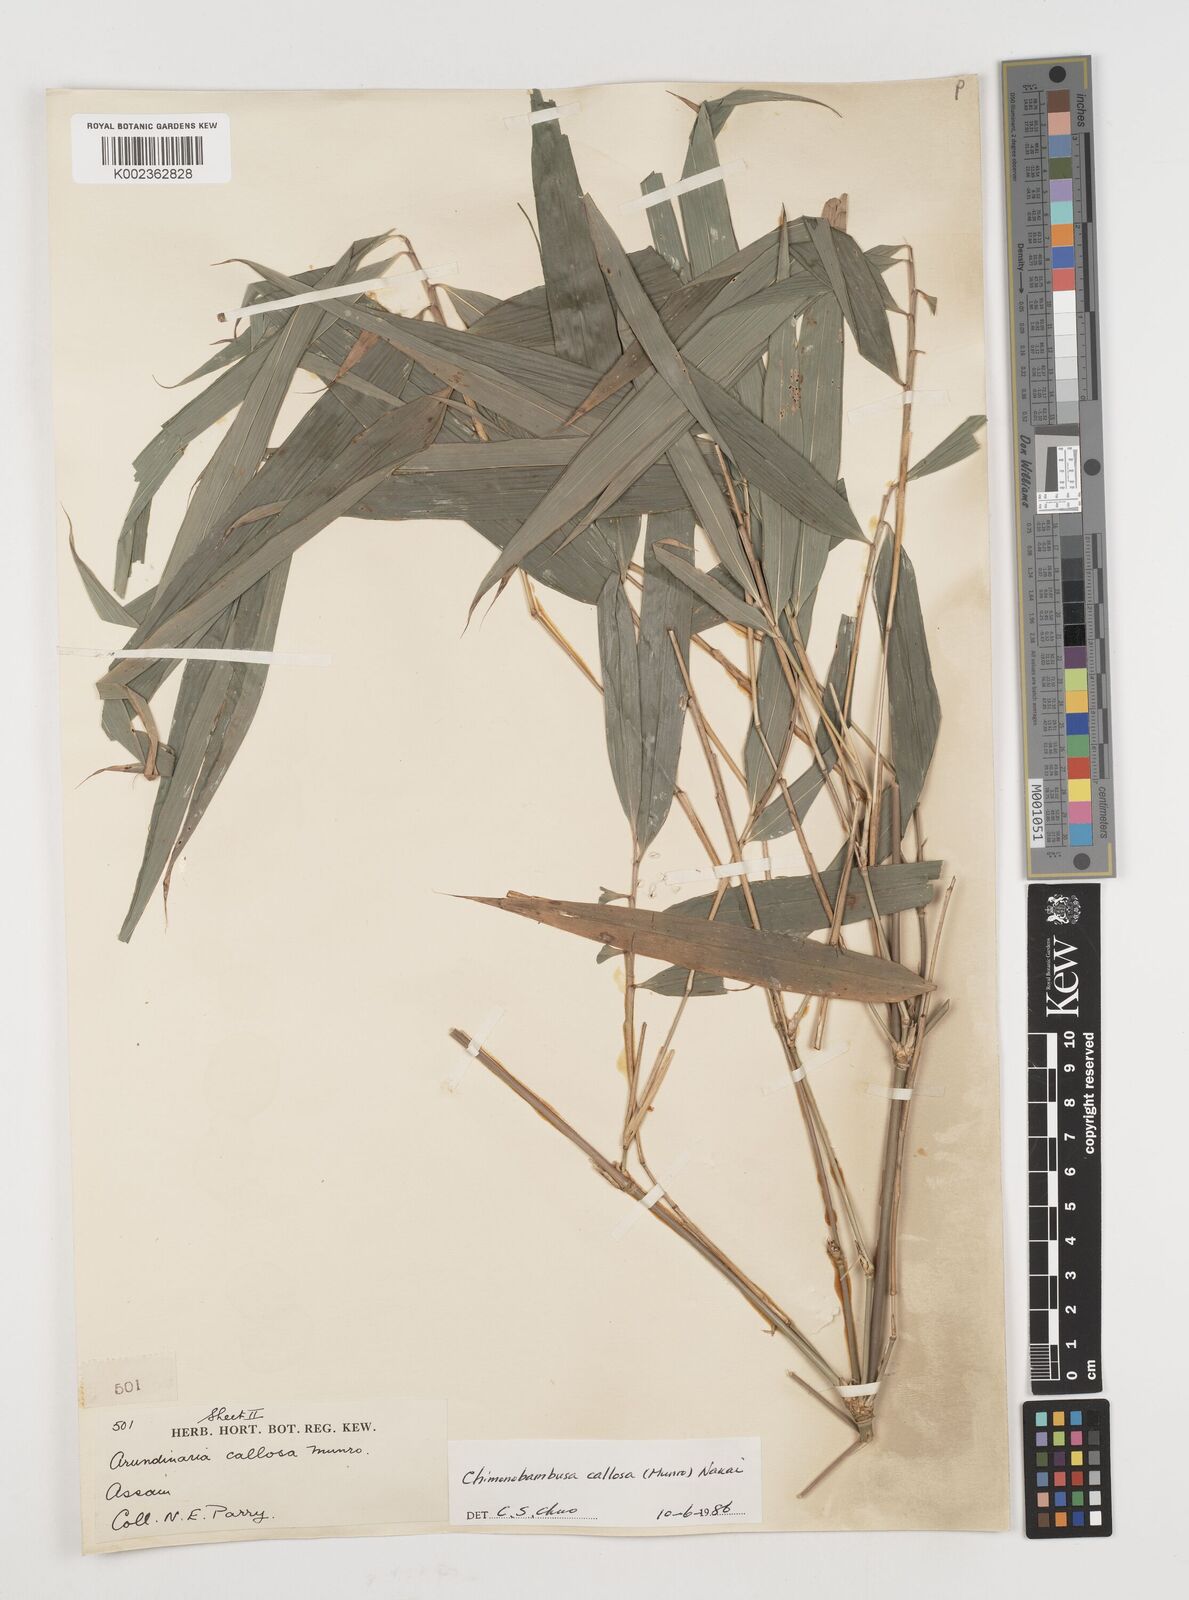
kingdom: Plantae
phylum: Tracheophyta
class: Liliopsida
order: Poales
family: Poaceae
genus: Chimonobambusa
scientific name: Chimonobambusa callosa
